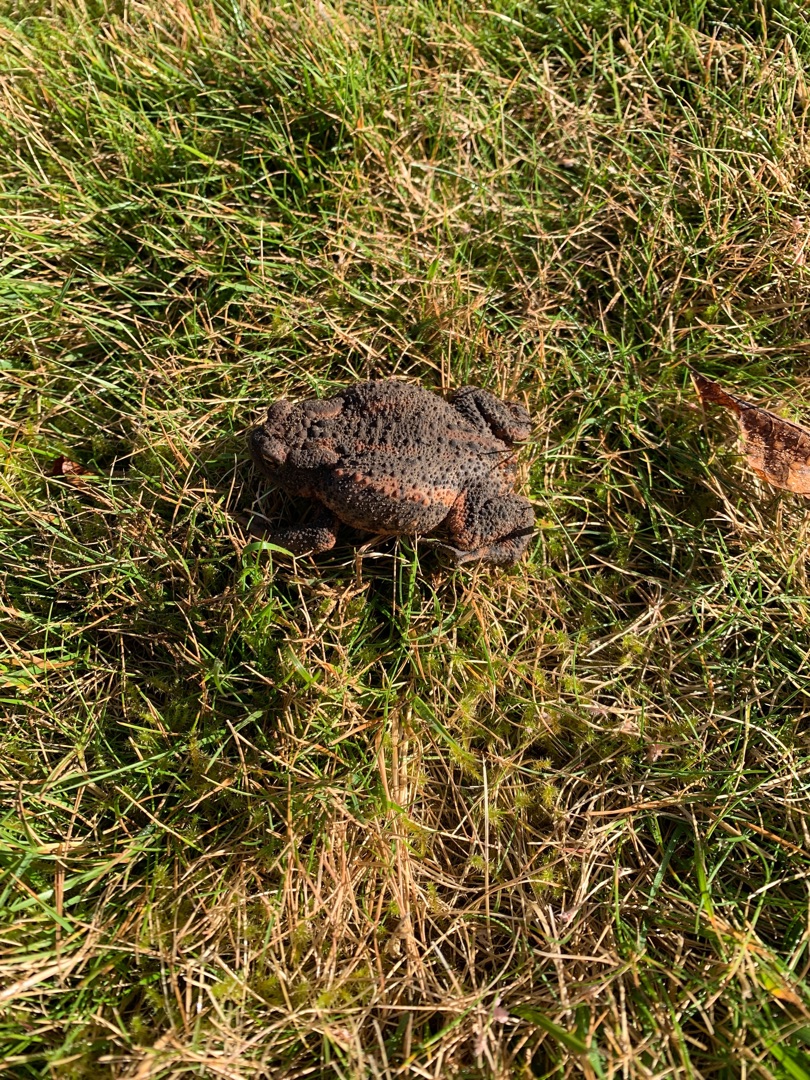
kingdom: Animalia
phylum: Chordata
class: Amphibia
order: Anura
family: Bufonidae
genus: Bufo
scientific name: Bufo bufo
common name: Skrubtudse
